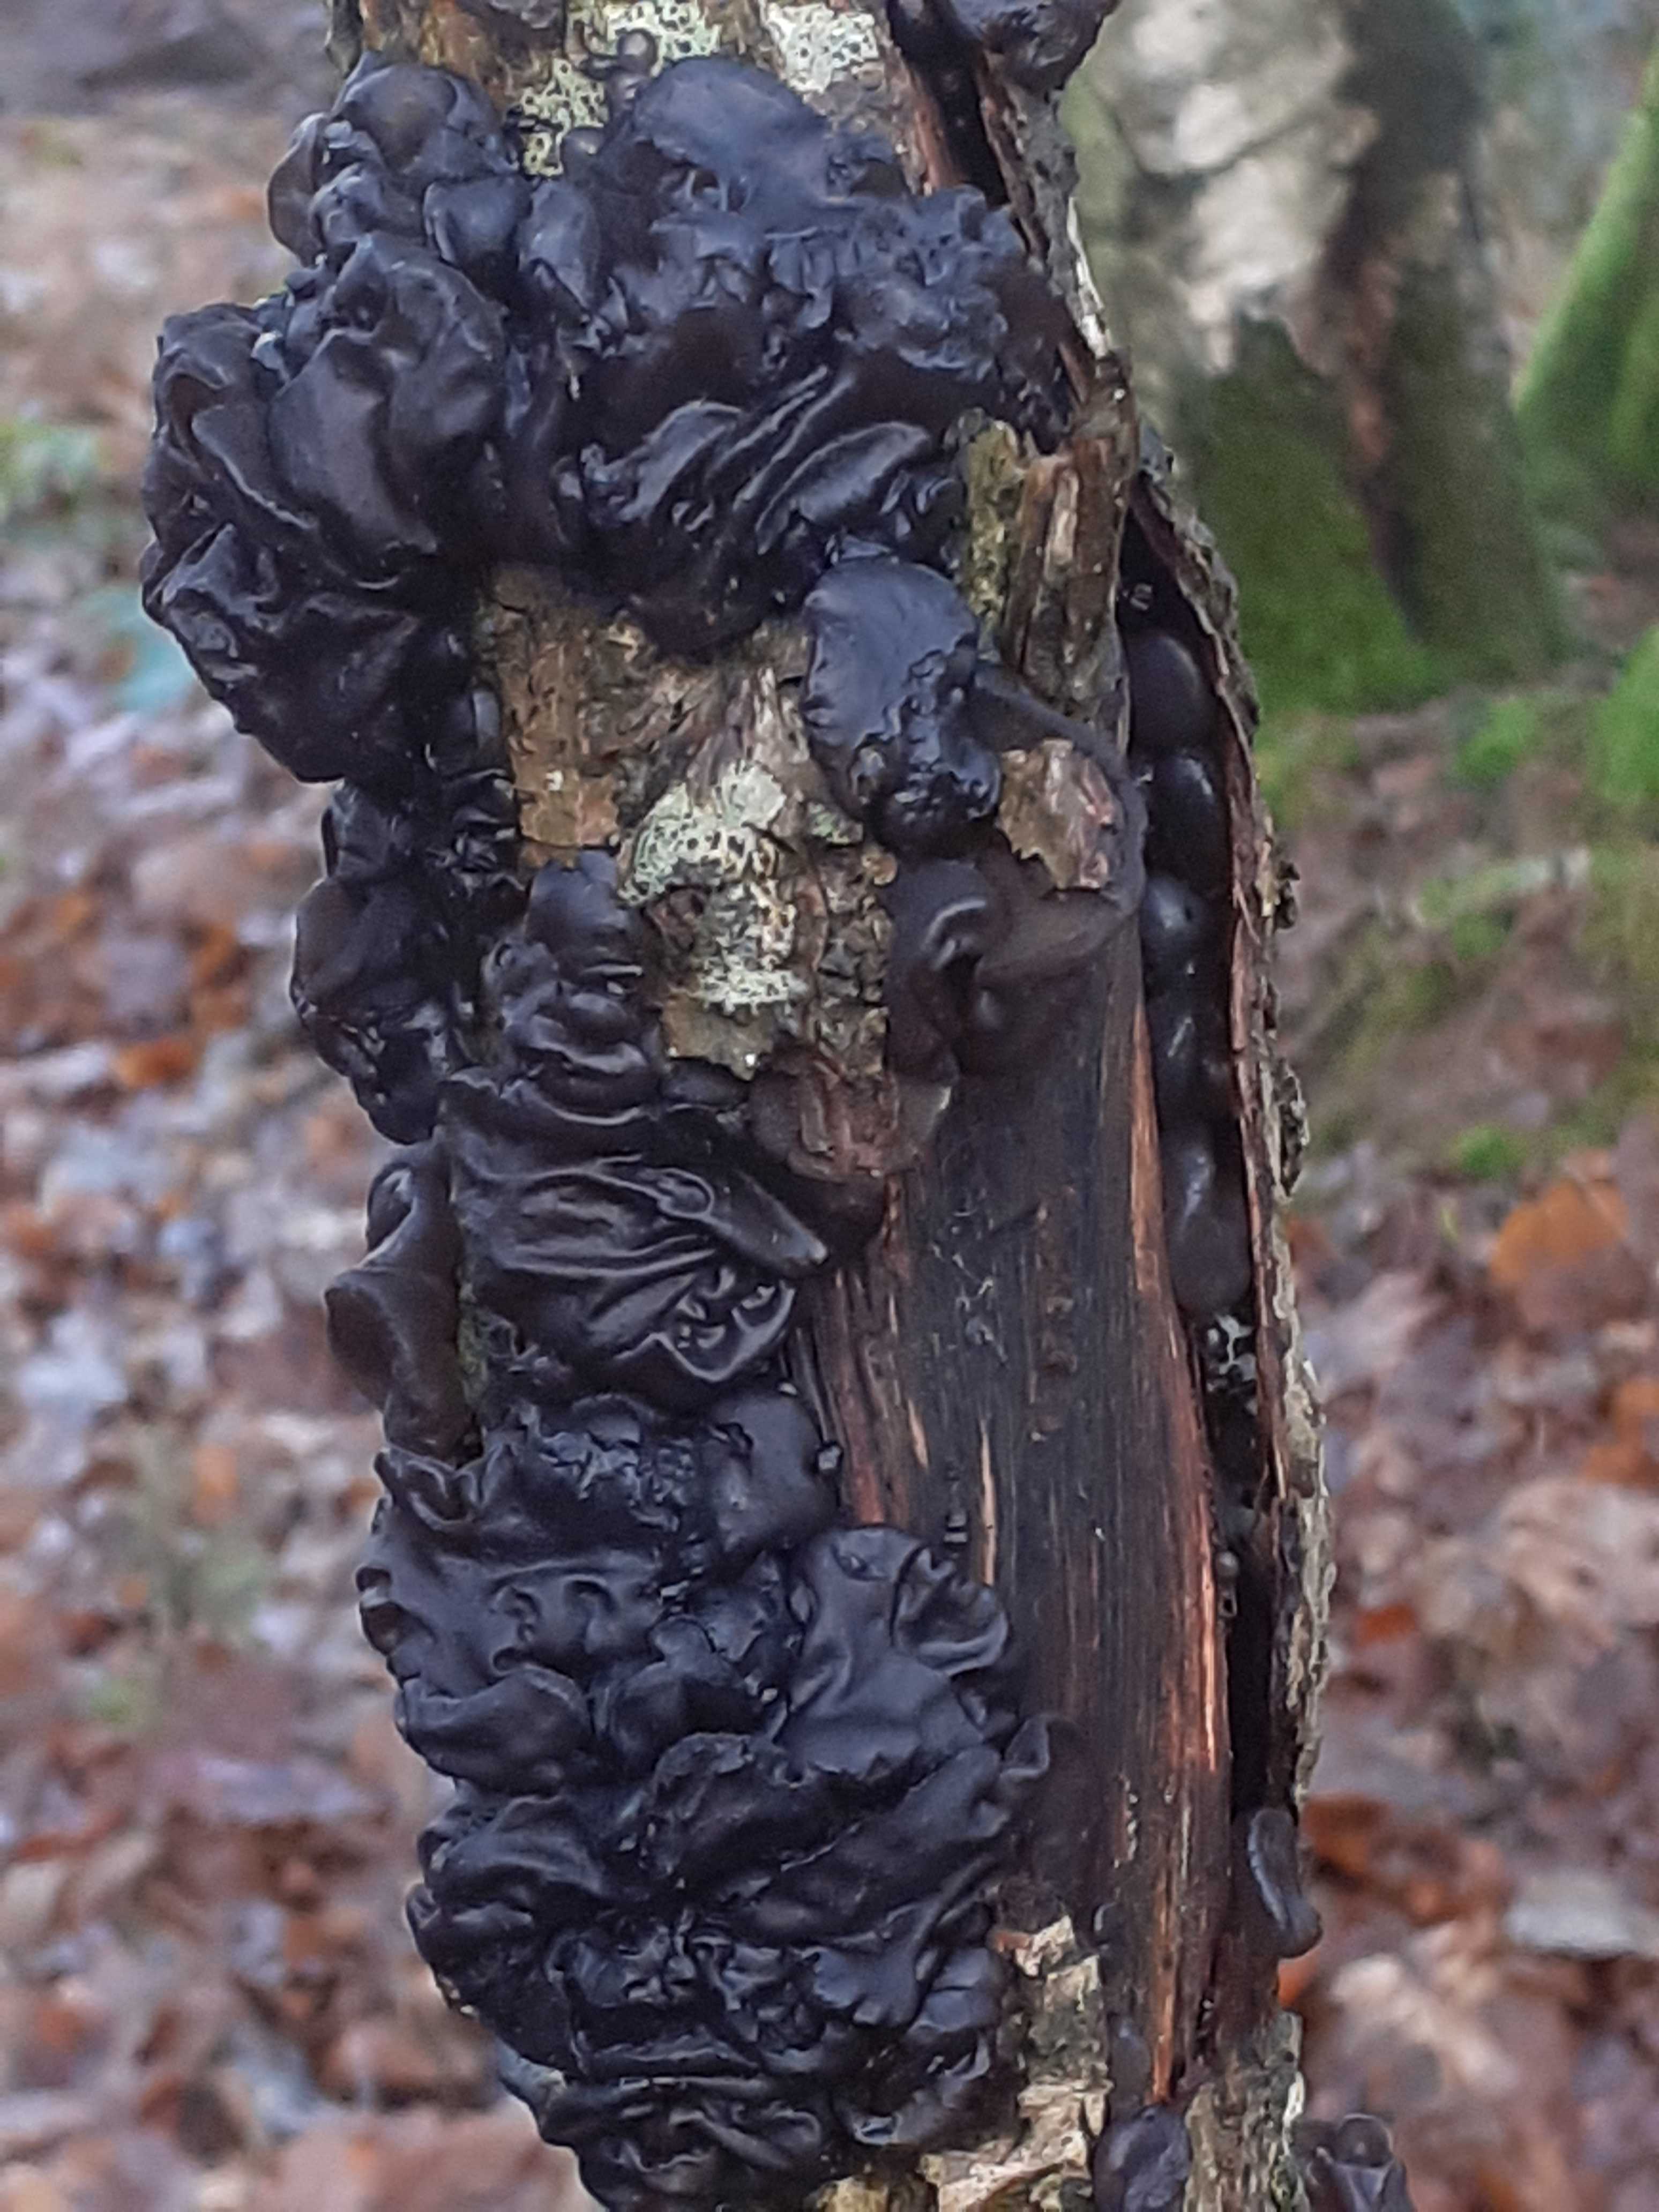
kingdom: Fungi
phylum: Basidiomycota
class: Agaricomycetes
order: Auriculariales
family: Auriculariaceae
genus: Exidia
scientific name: Exidia nigricans
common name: almindelig bævretop
